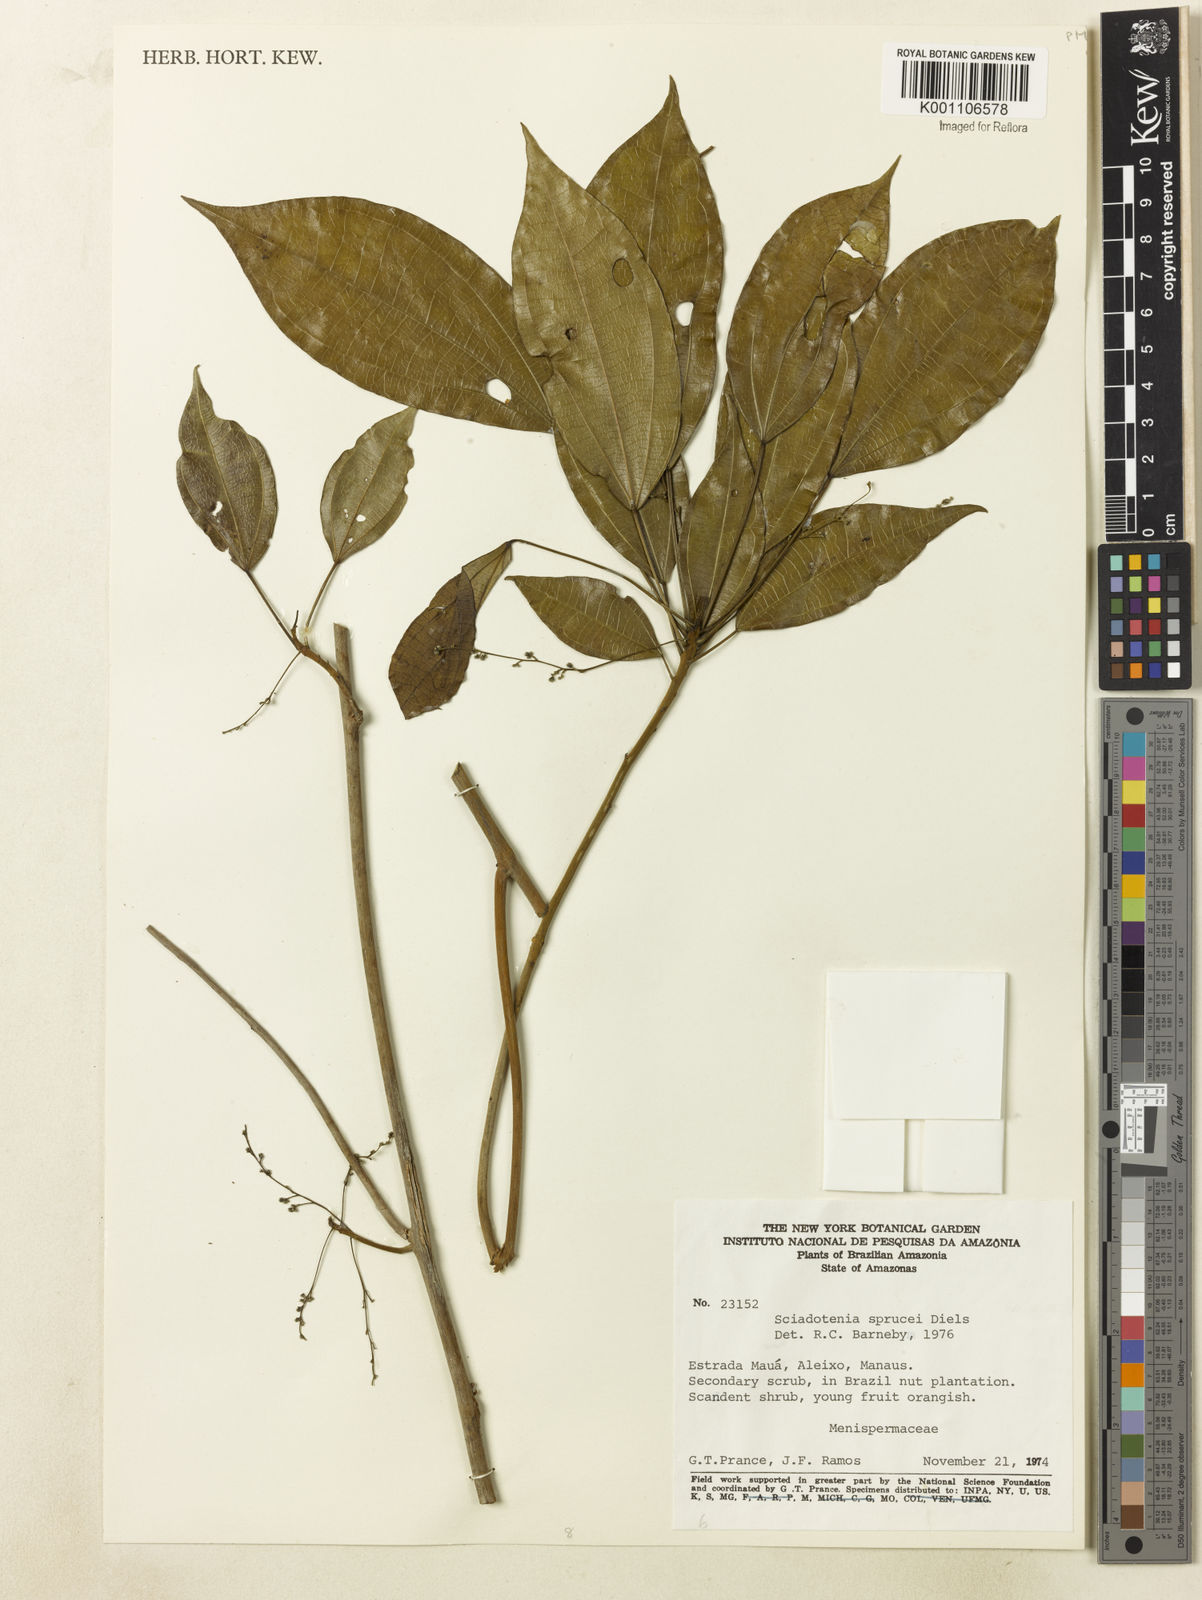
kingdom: Plantae
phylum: Tracheophyta
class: Magnoliopsida
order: Ranunculales
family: Menispermaceae
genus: Sciadotenia
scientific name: Sciadotenia
